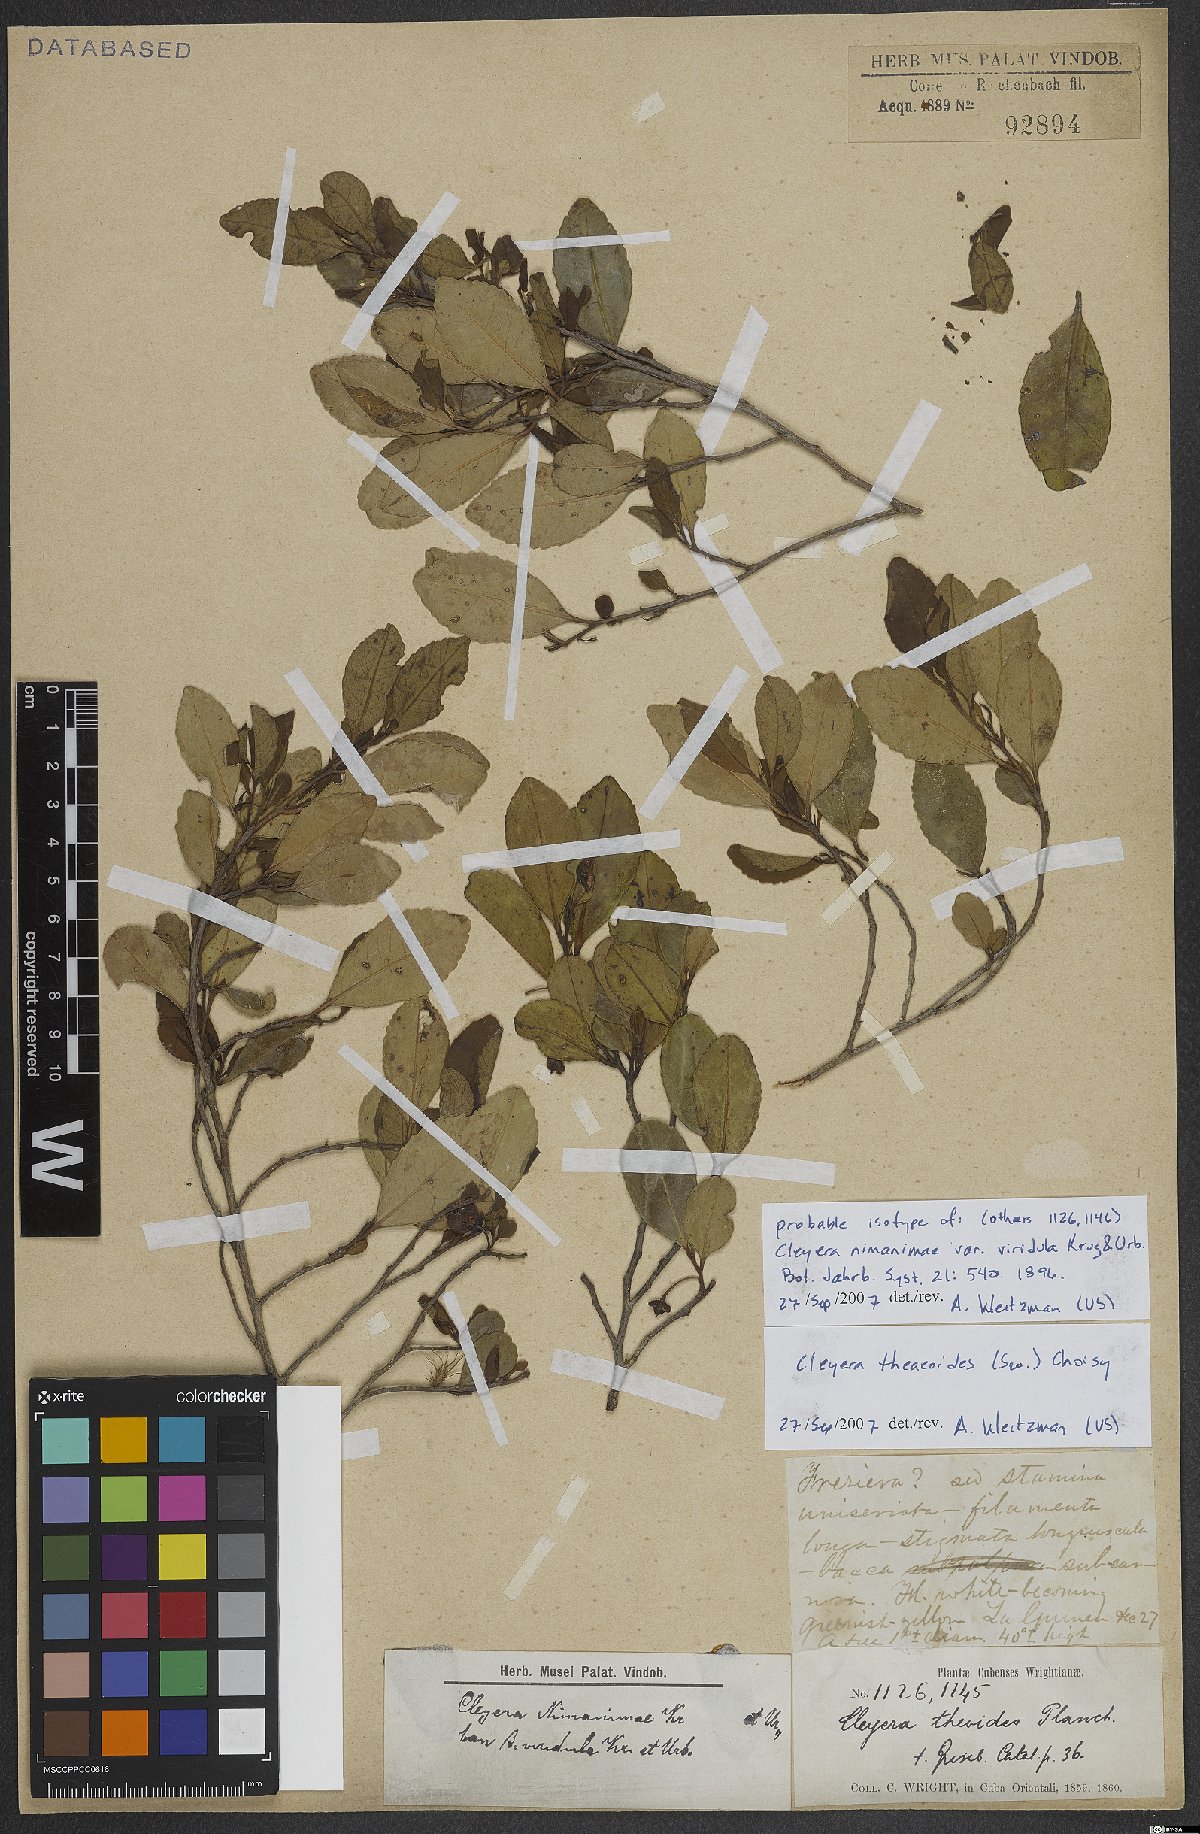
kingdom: Plantae
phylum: Tracheophyta
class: Magnoliopsida
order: Ericales
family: Pentaphylacaceae
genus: Cleyera
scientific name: Cleyera theaeoides
